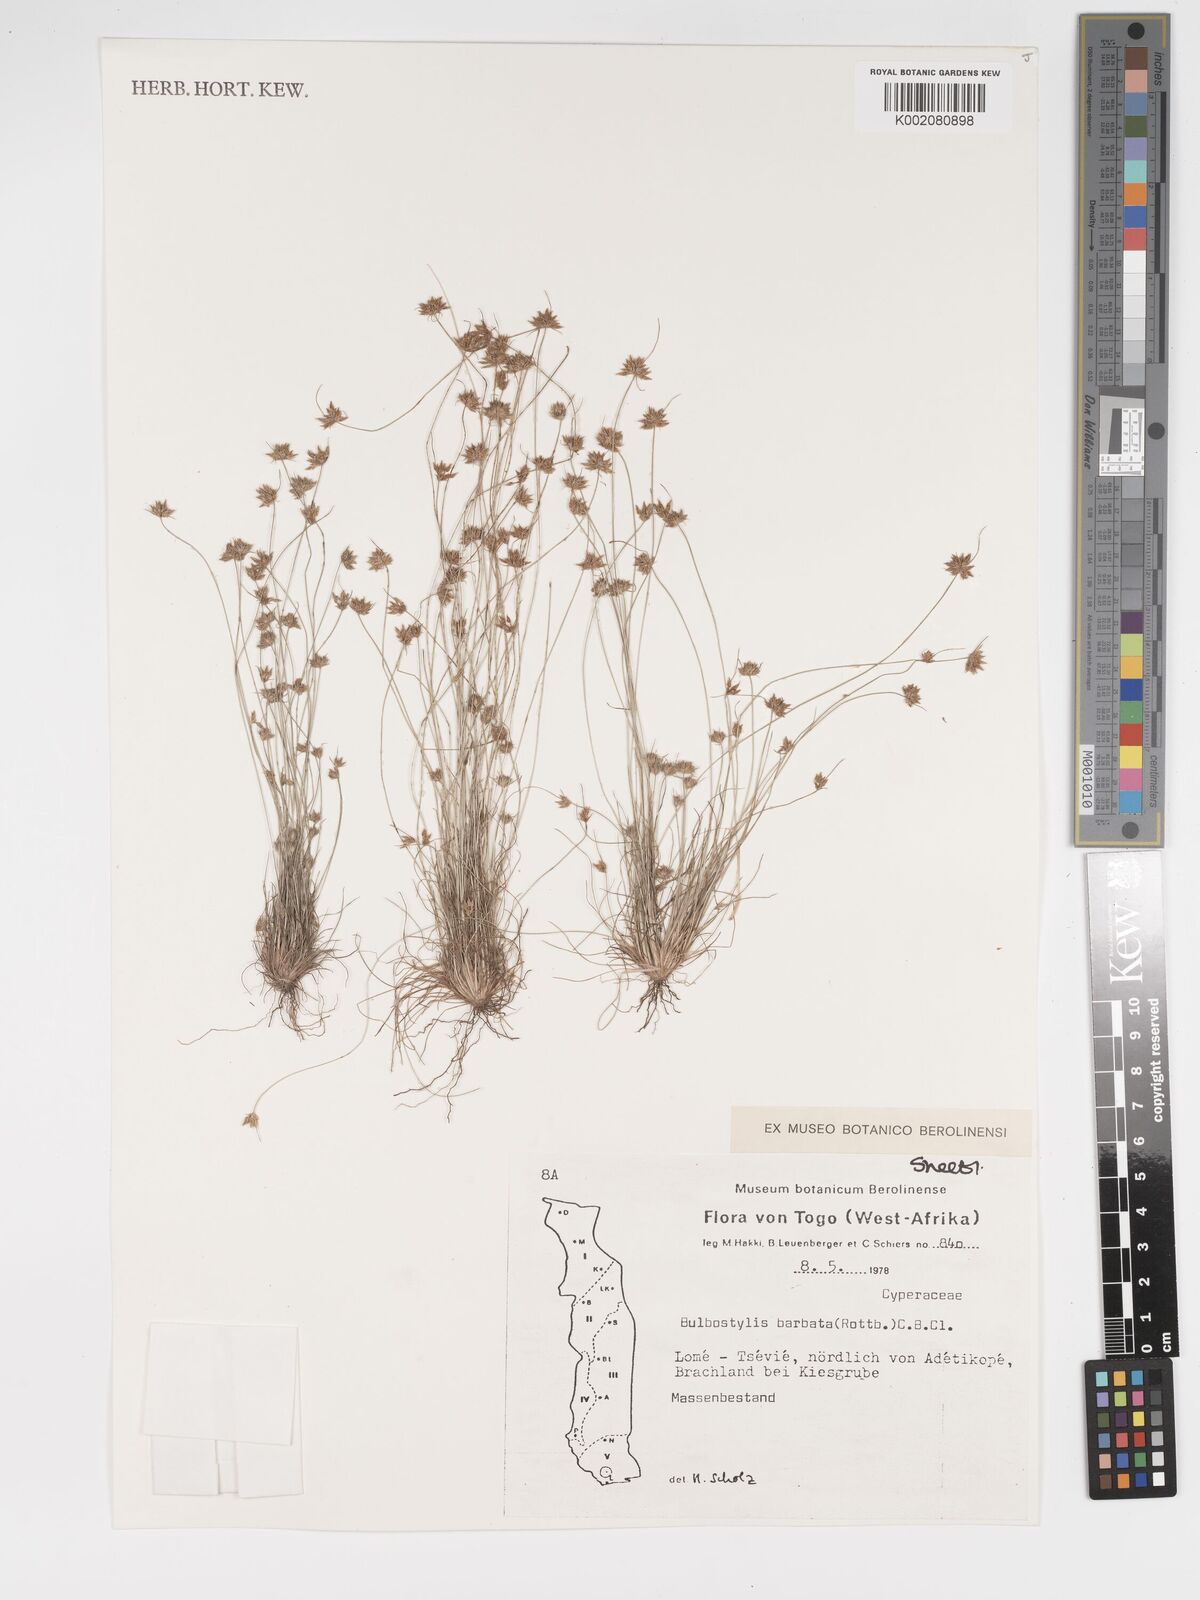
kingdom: Plantae
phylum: Tracheophyta
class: Liliopsida
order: Poales
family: Cyperaceae
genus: Bulbostylis
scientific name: Bulbostylis barbata
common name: Watergrass
